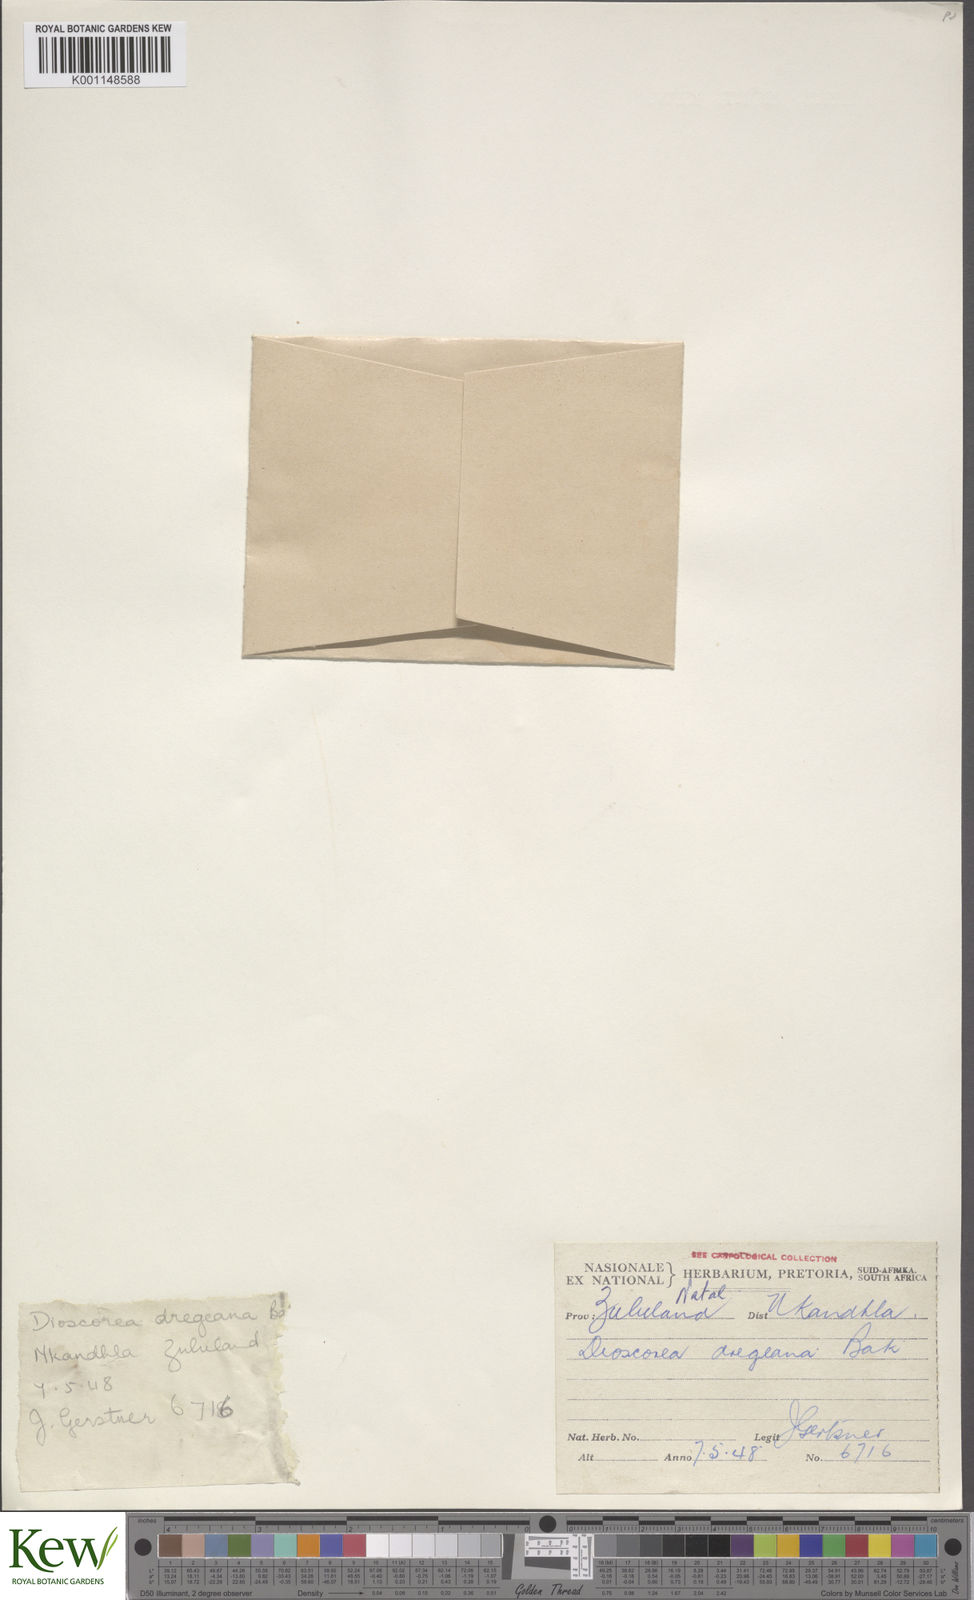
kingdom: Plantae
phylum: Tracheophyta
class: Liliopsida
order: Dioscoreales
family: Dioscoreaceae
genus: Dioscorea
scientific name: Dioscorea dregeana
